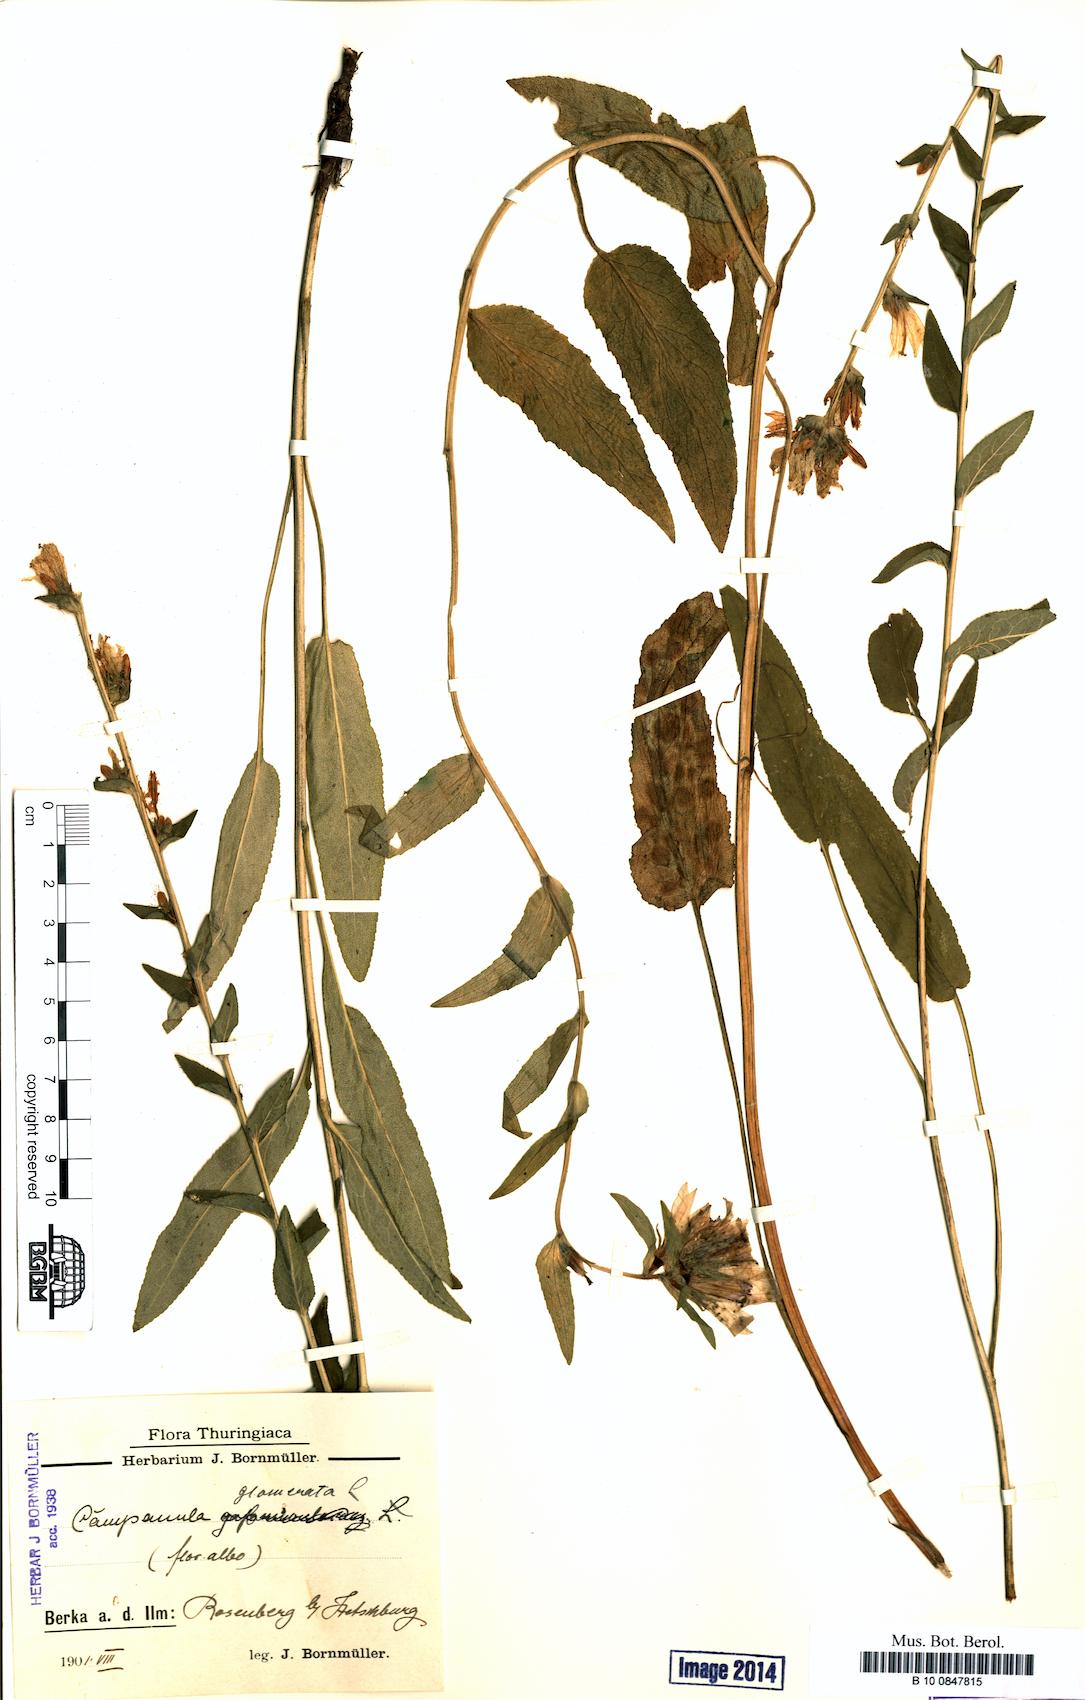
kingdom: Plantae
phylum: Tracheophyta
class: Magnoliopsida
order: Asterales
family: Campanulaceae
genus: Campanula
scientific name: Campanula glomerata
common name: Clustered bellflower
